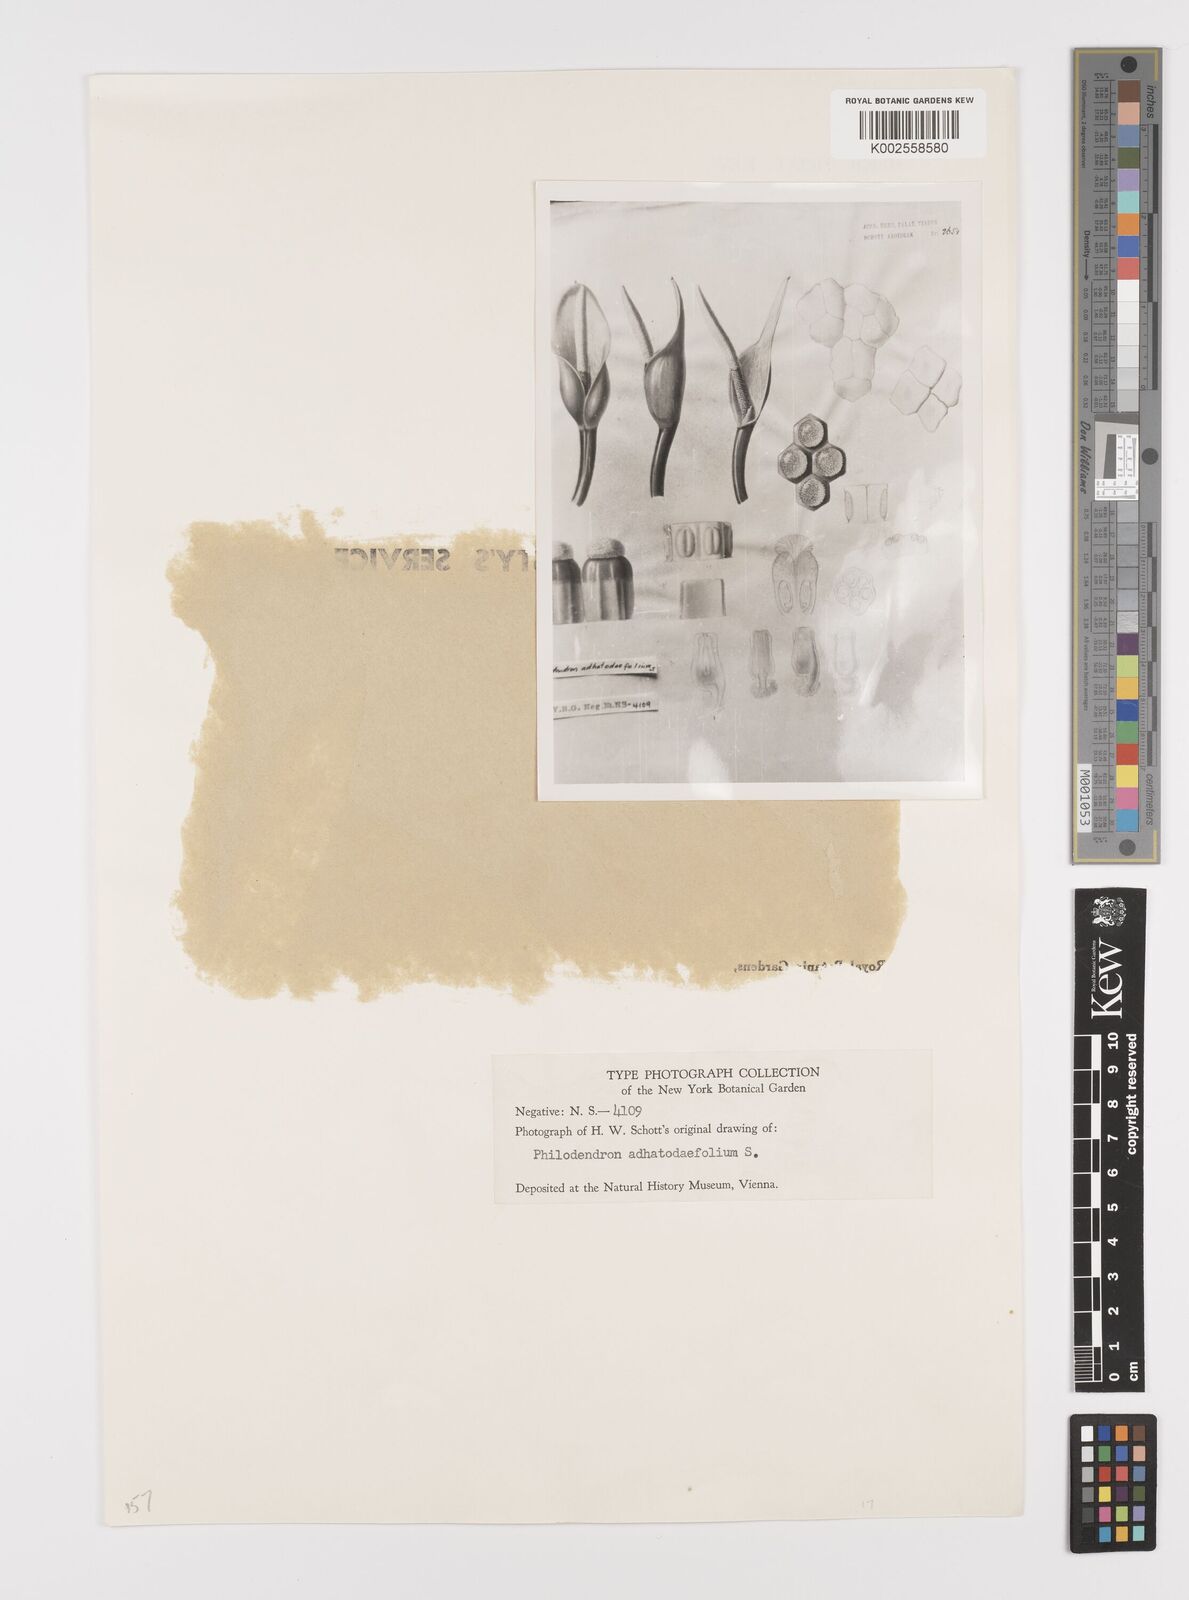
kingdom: Plantae
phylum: Tracheophyta
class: Liliopsida
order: Alismatales
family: Araceae
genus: Philodendron
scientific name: Philodendron adhatodifolium
